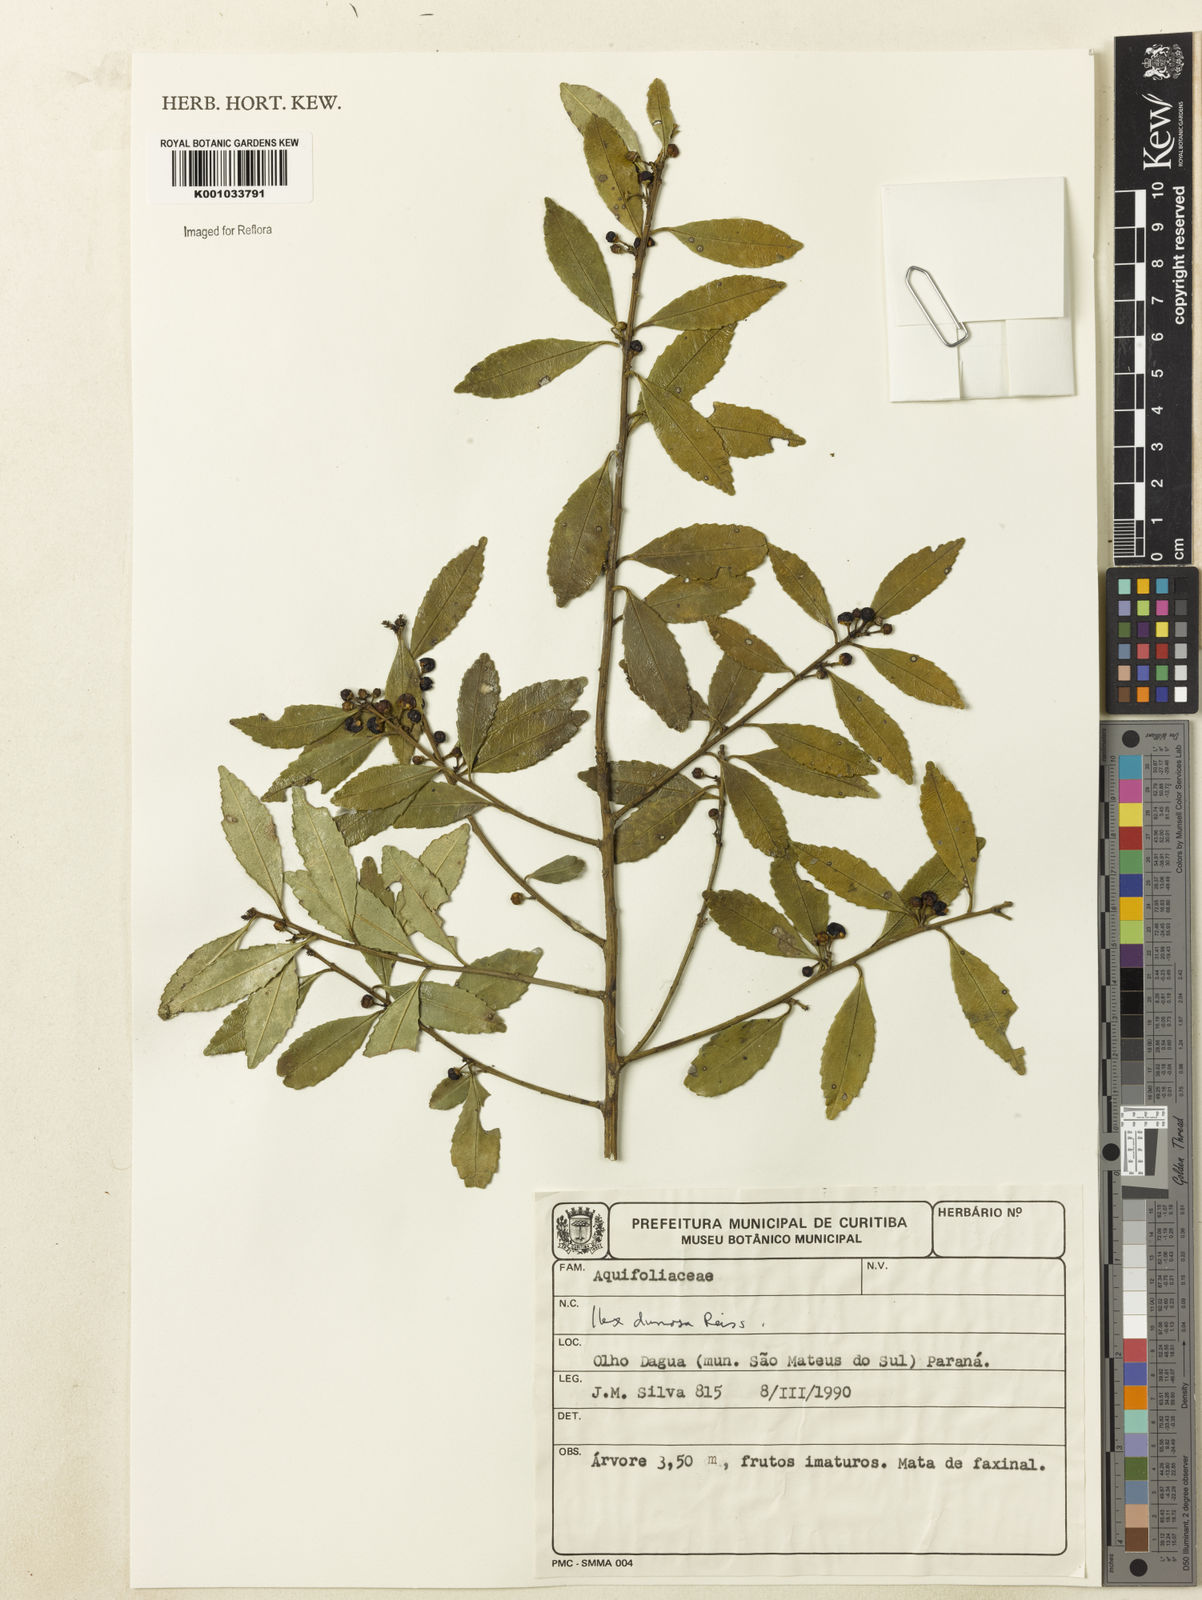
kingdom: Plantae
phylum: Tracheophyta
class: Magnoliopsida
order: Aquifoliales
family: Aquifoliaceae
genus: Ilex
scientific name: Ilex dumosa
